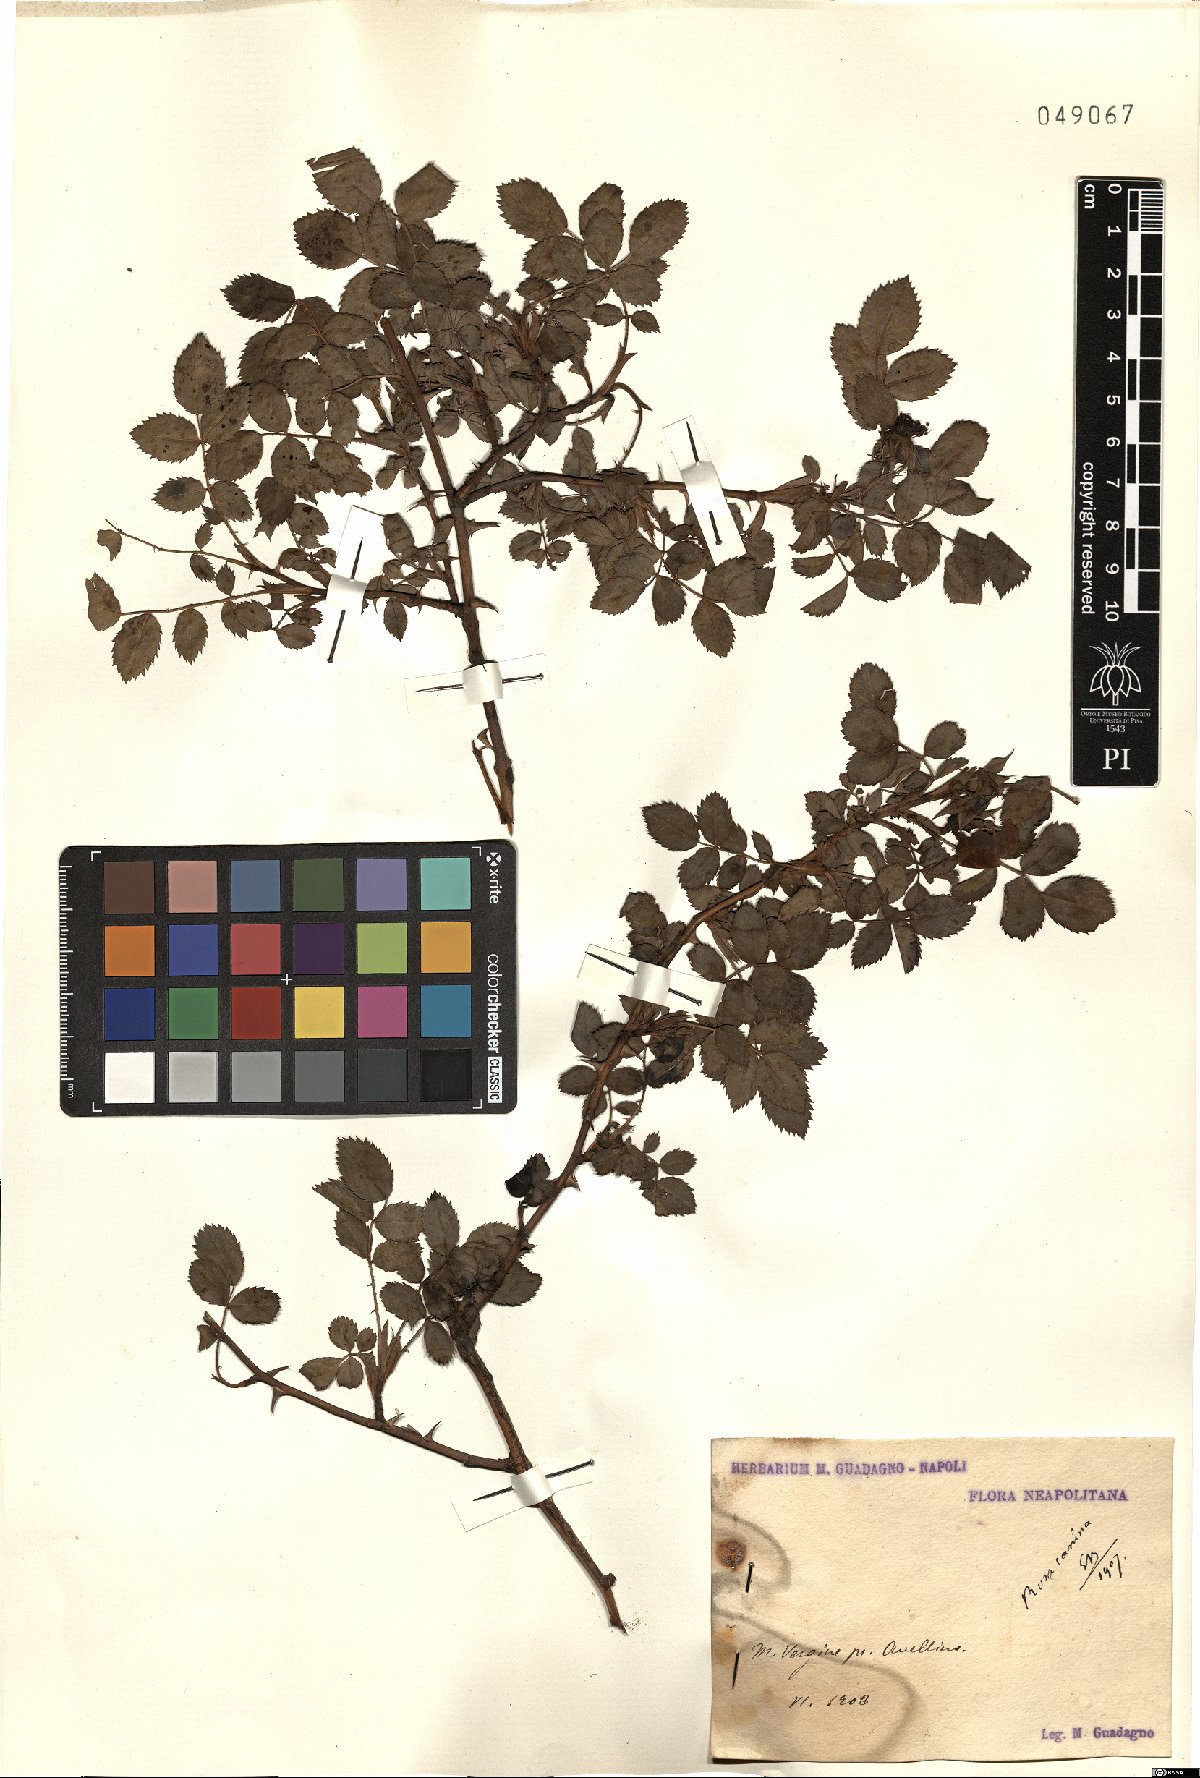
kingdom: Plantae
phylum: Tracheophyta
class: Magnoliopsida
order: Rosales
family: Rosaceae
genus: Rosa
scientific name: Rosa canina
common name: Dog rose
